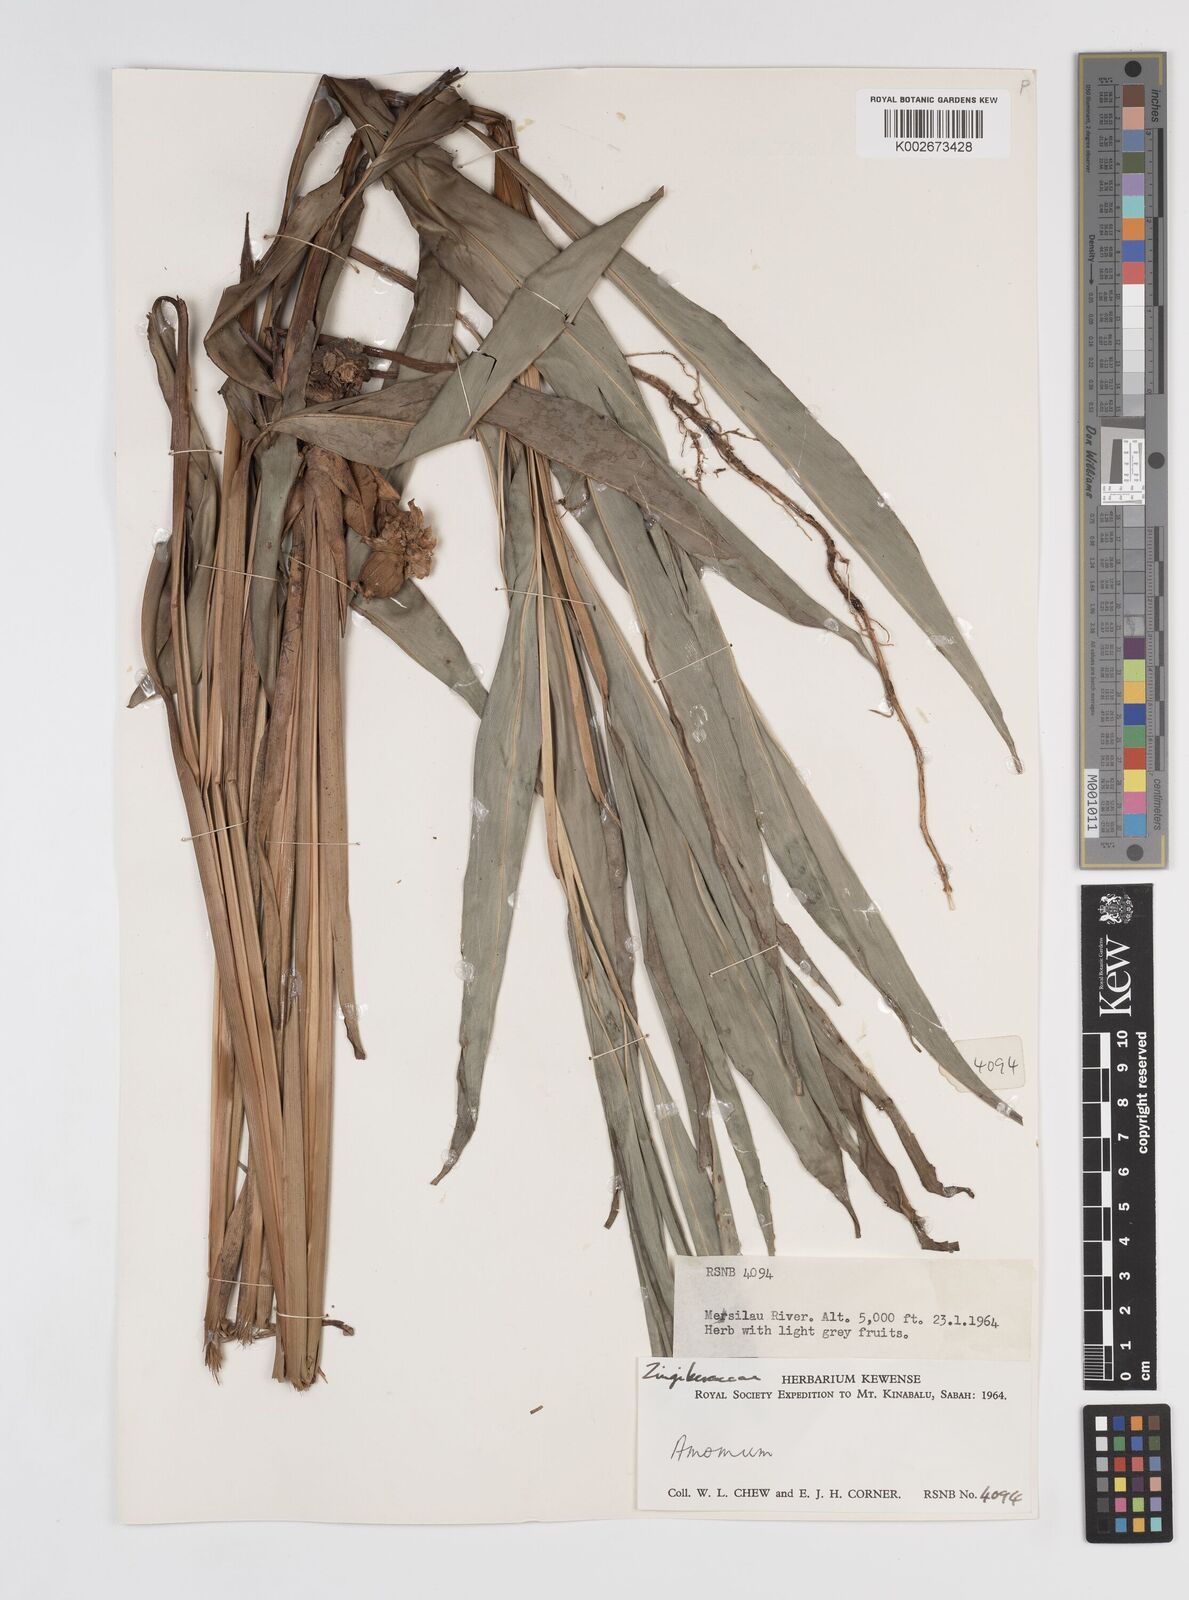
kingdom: Plantae
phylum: Tracheophyta
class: Liliopsida
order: Zingiberales
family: Zingiberaceae
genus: Sundamomum
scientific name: Sundamomum flavoalbum
